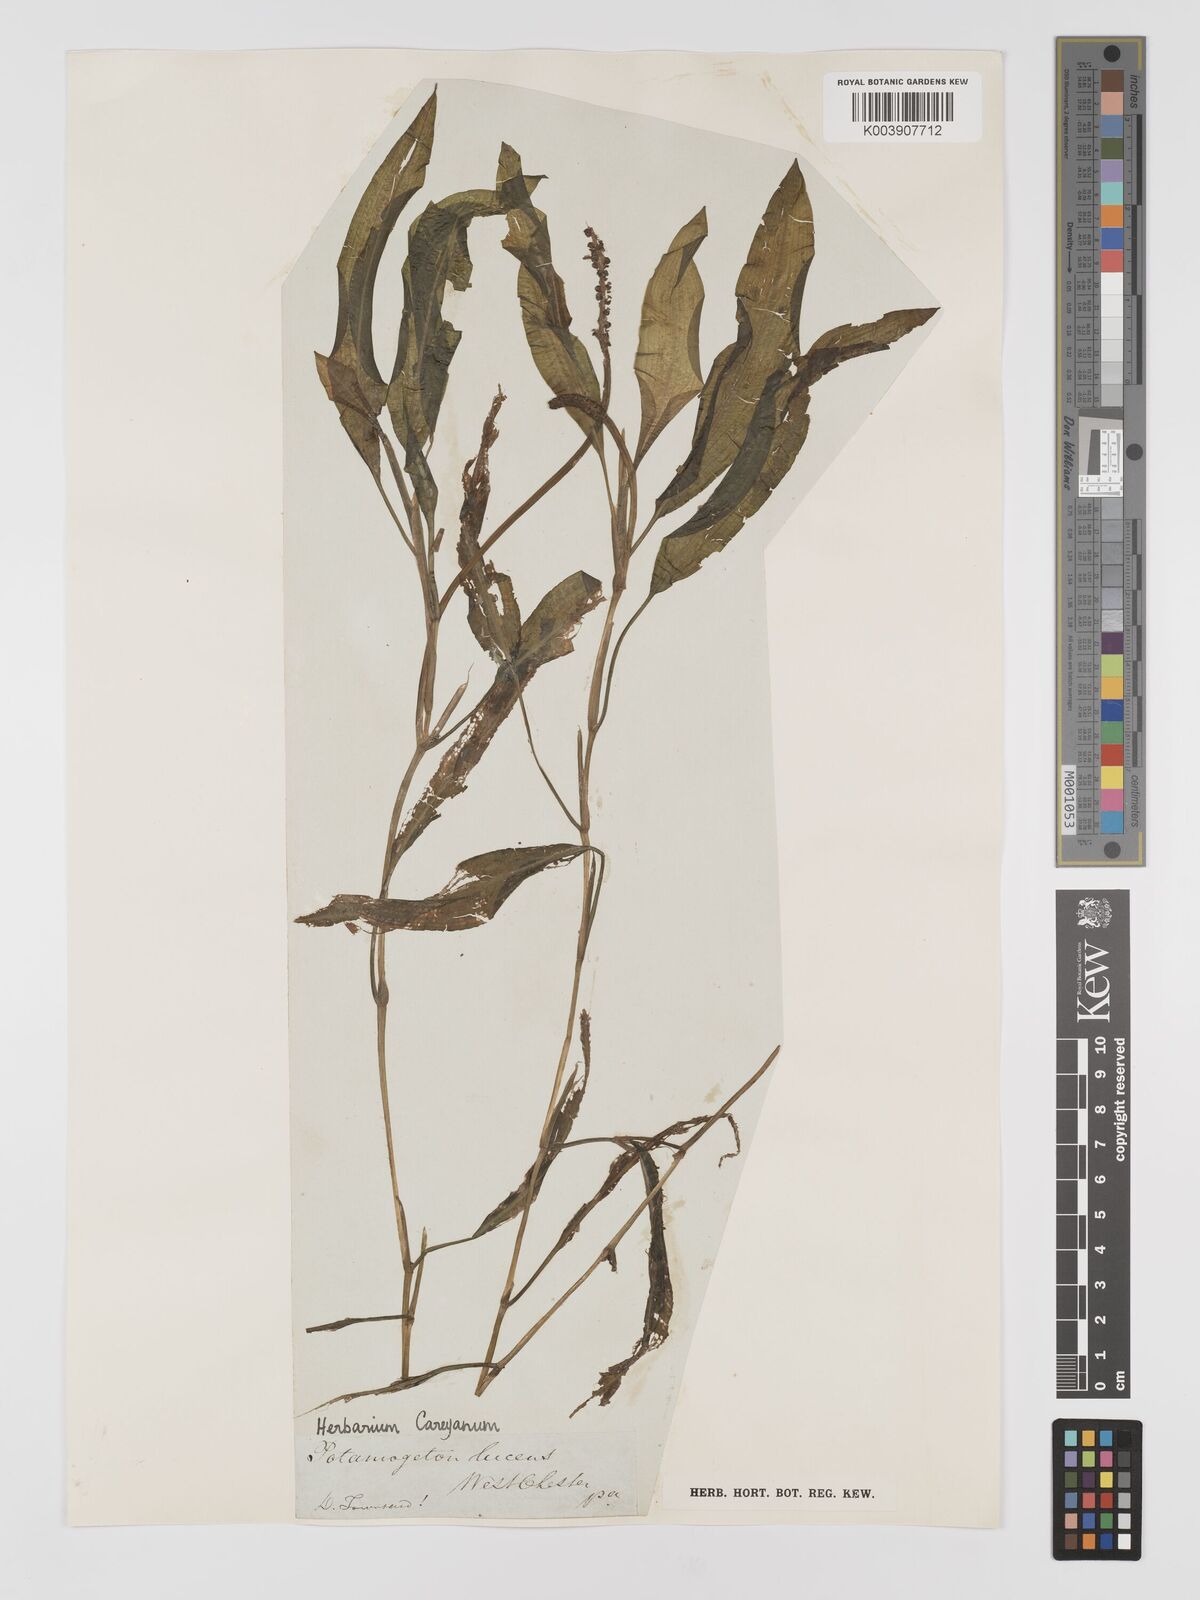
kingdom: Plantae
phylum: Tracheophyta
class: Liliopsida
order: Alismatales
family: Potamogetonaceae
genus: Potamogeton
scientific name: Potamogeton illinoensis
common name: Illinois pondweed
